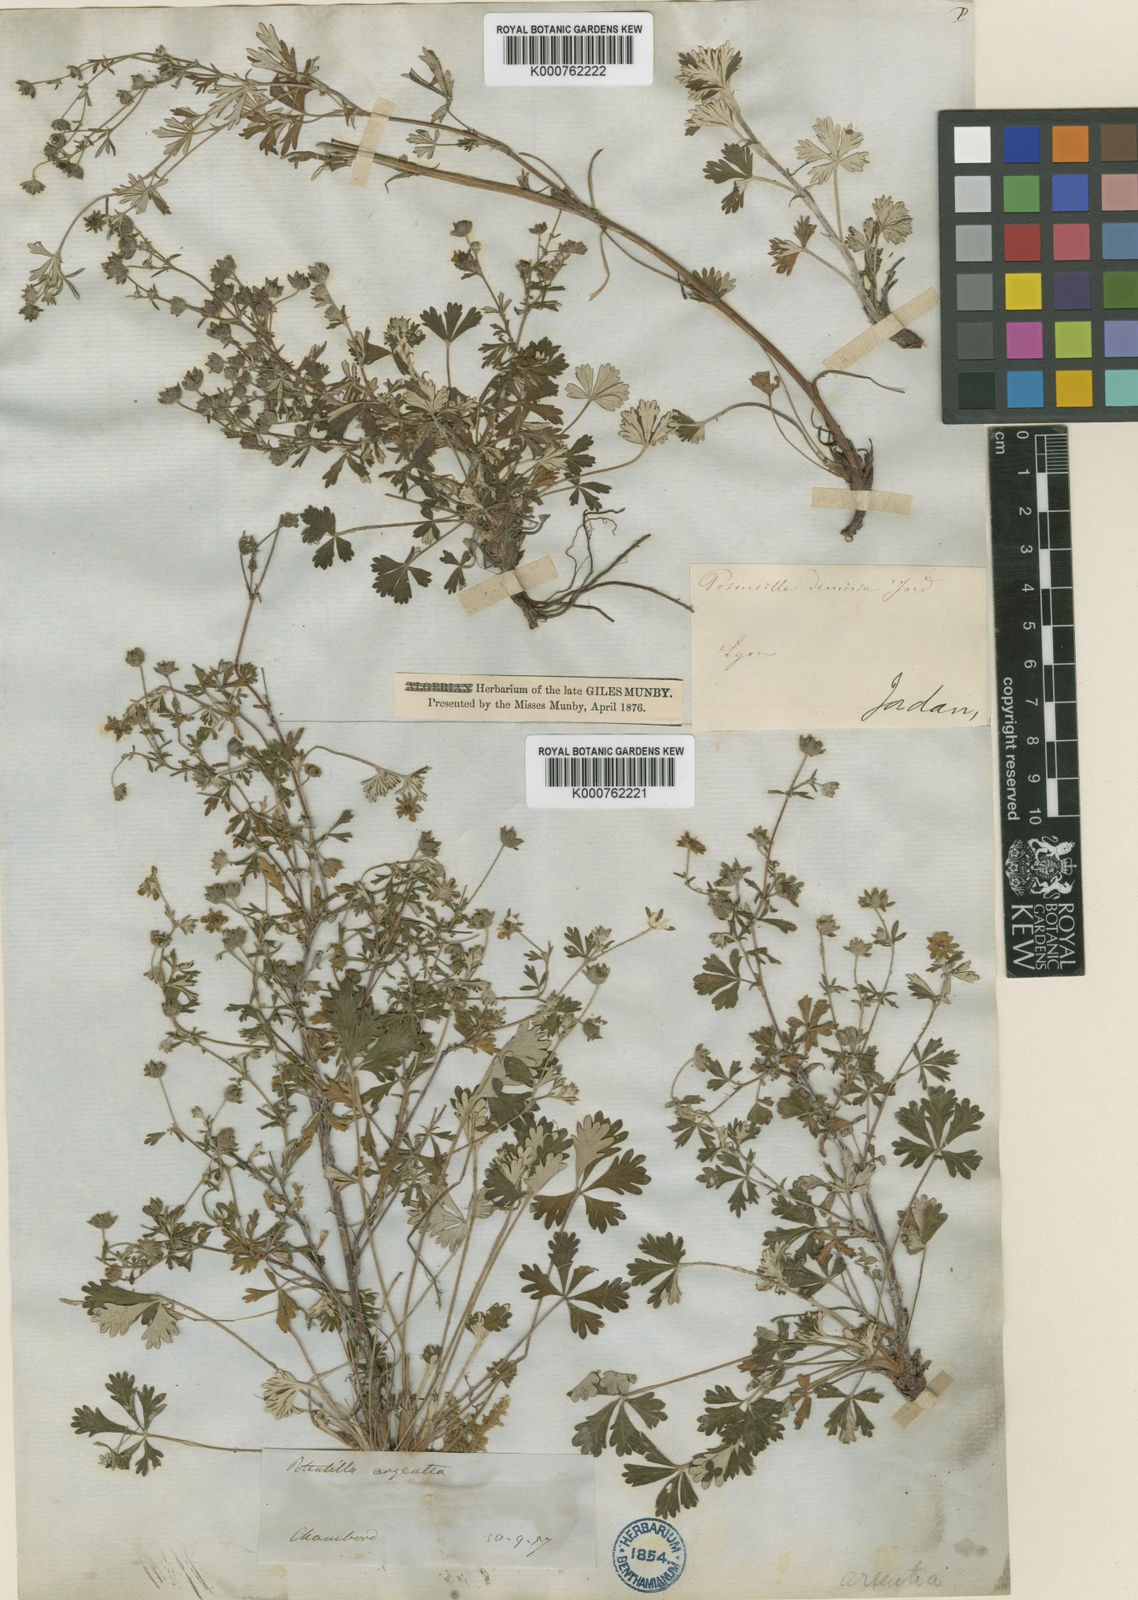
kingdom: Plantae
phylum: Tracheophyta
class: Magnoliopsida
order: Rosales
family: Rosaceae
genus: Potentilla
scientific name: Potentilla
